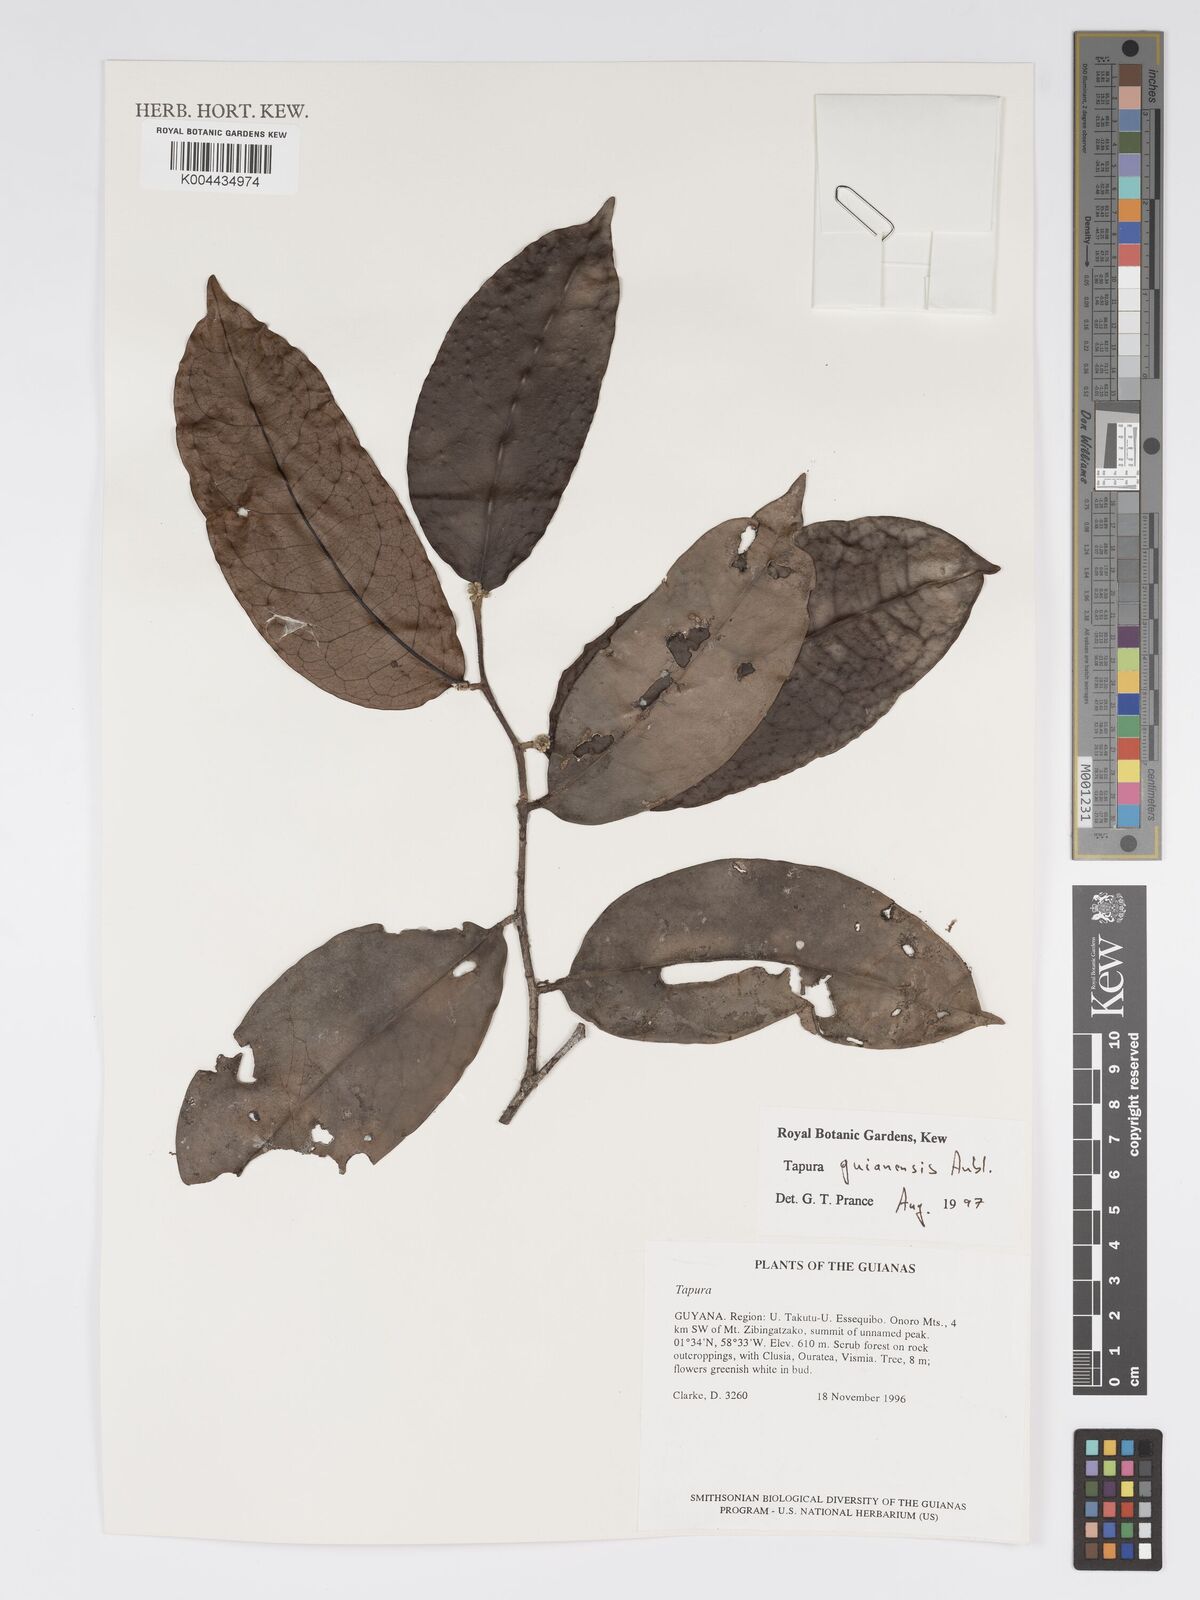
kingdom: Plantae
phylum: Tracheophyta
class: Magnoliopsida
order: Malpighiales
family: Dichapetalaceae
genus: Tapura
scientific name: Tapura guianensis
